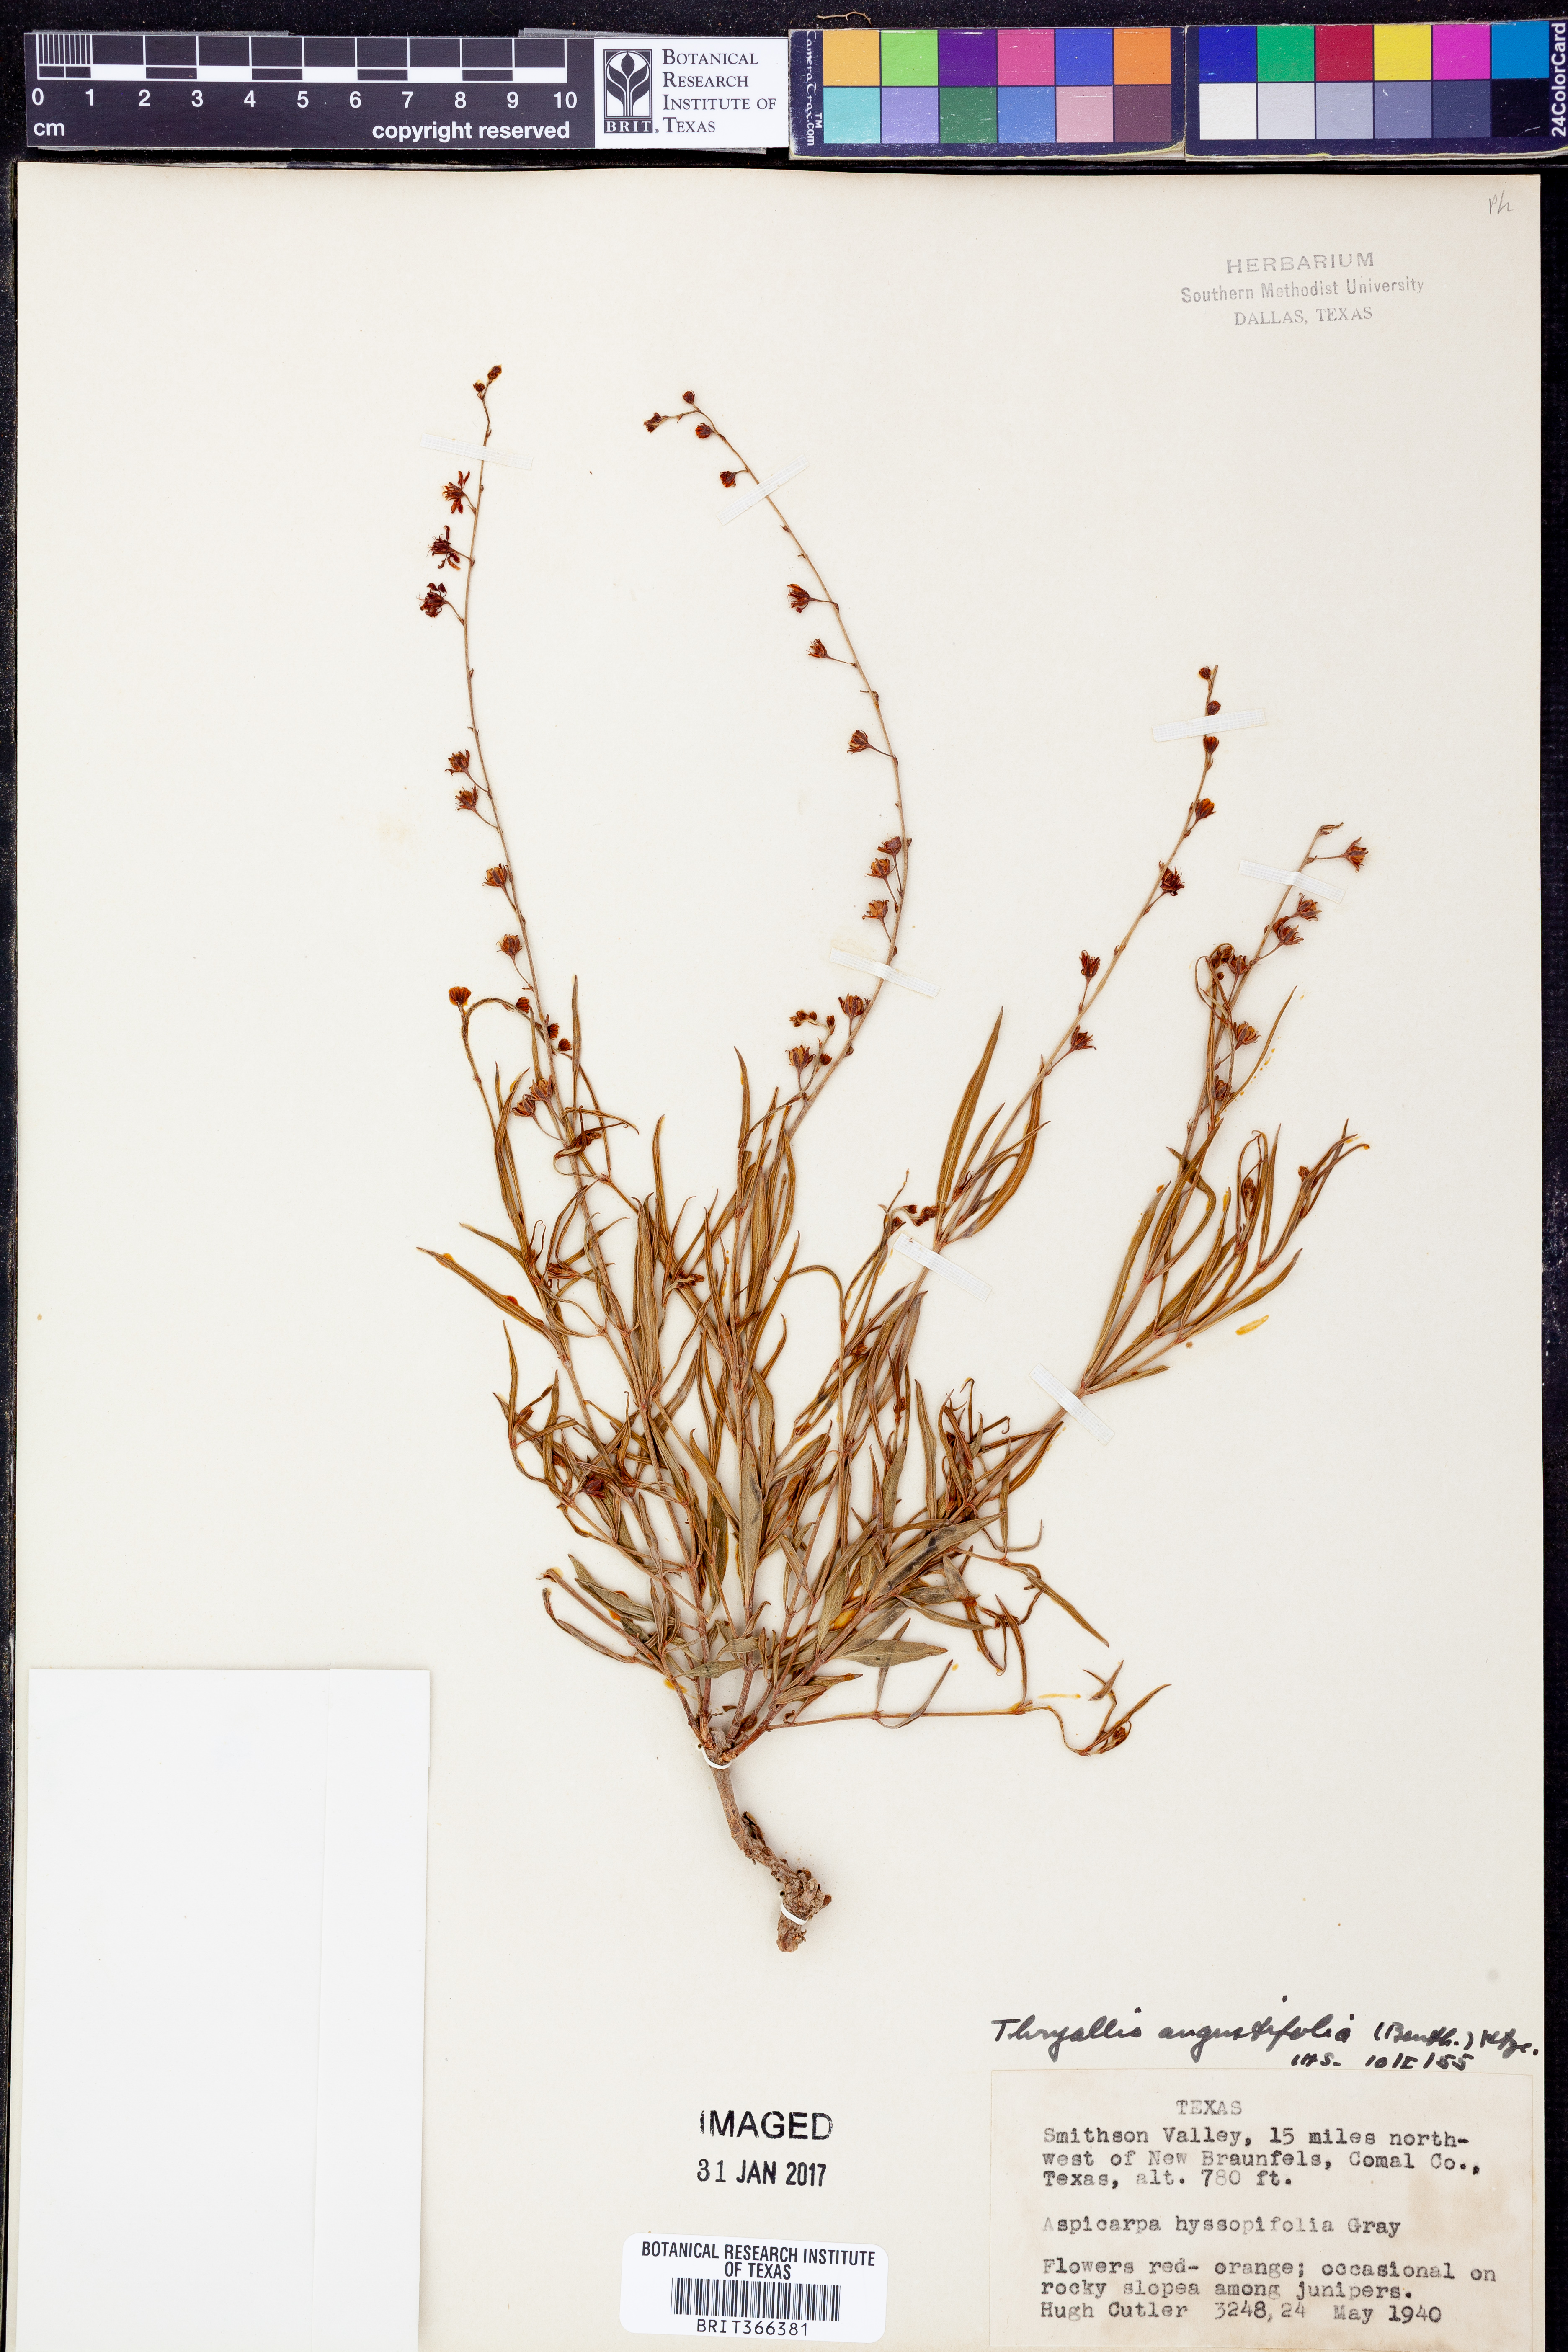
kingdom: Plantae
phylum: Tracheophyta
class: Magnoliopsida
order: Malpighiales
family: Malpighiaceae
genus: Galphimia
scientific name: Galphimia angustifolia
